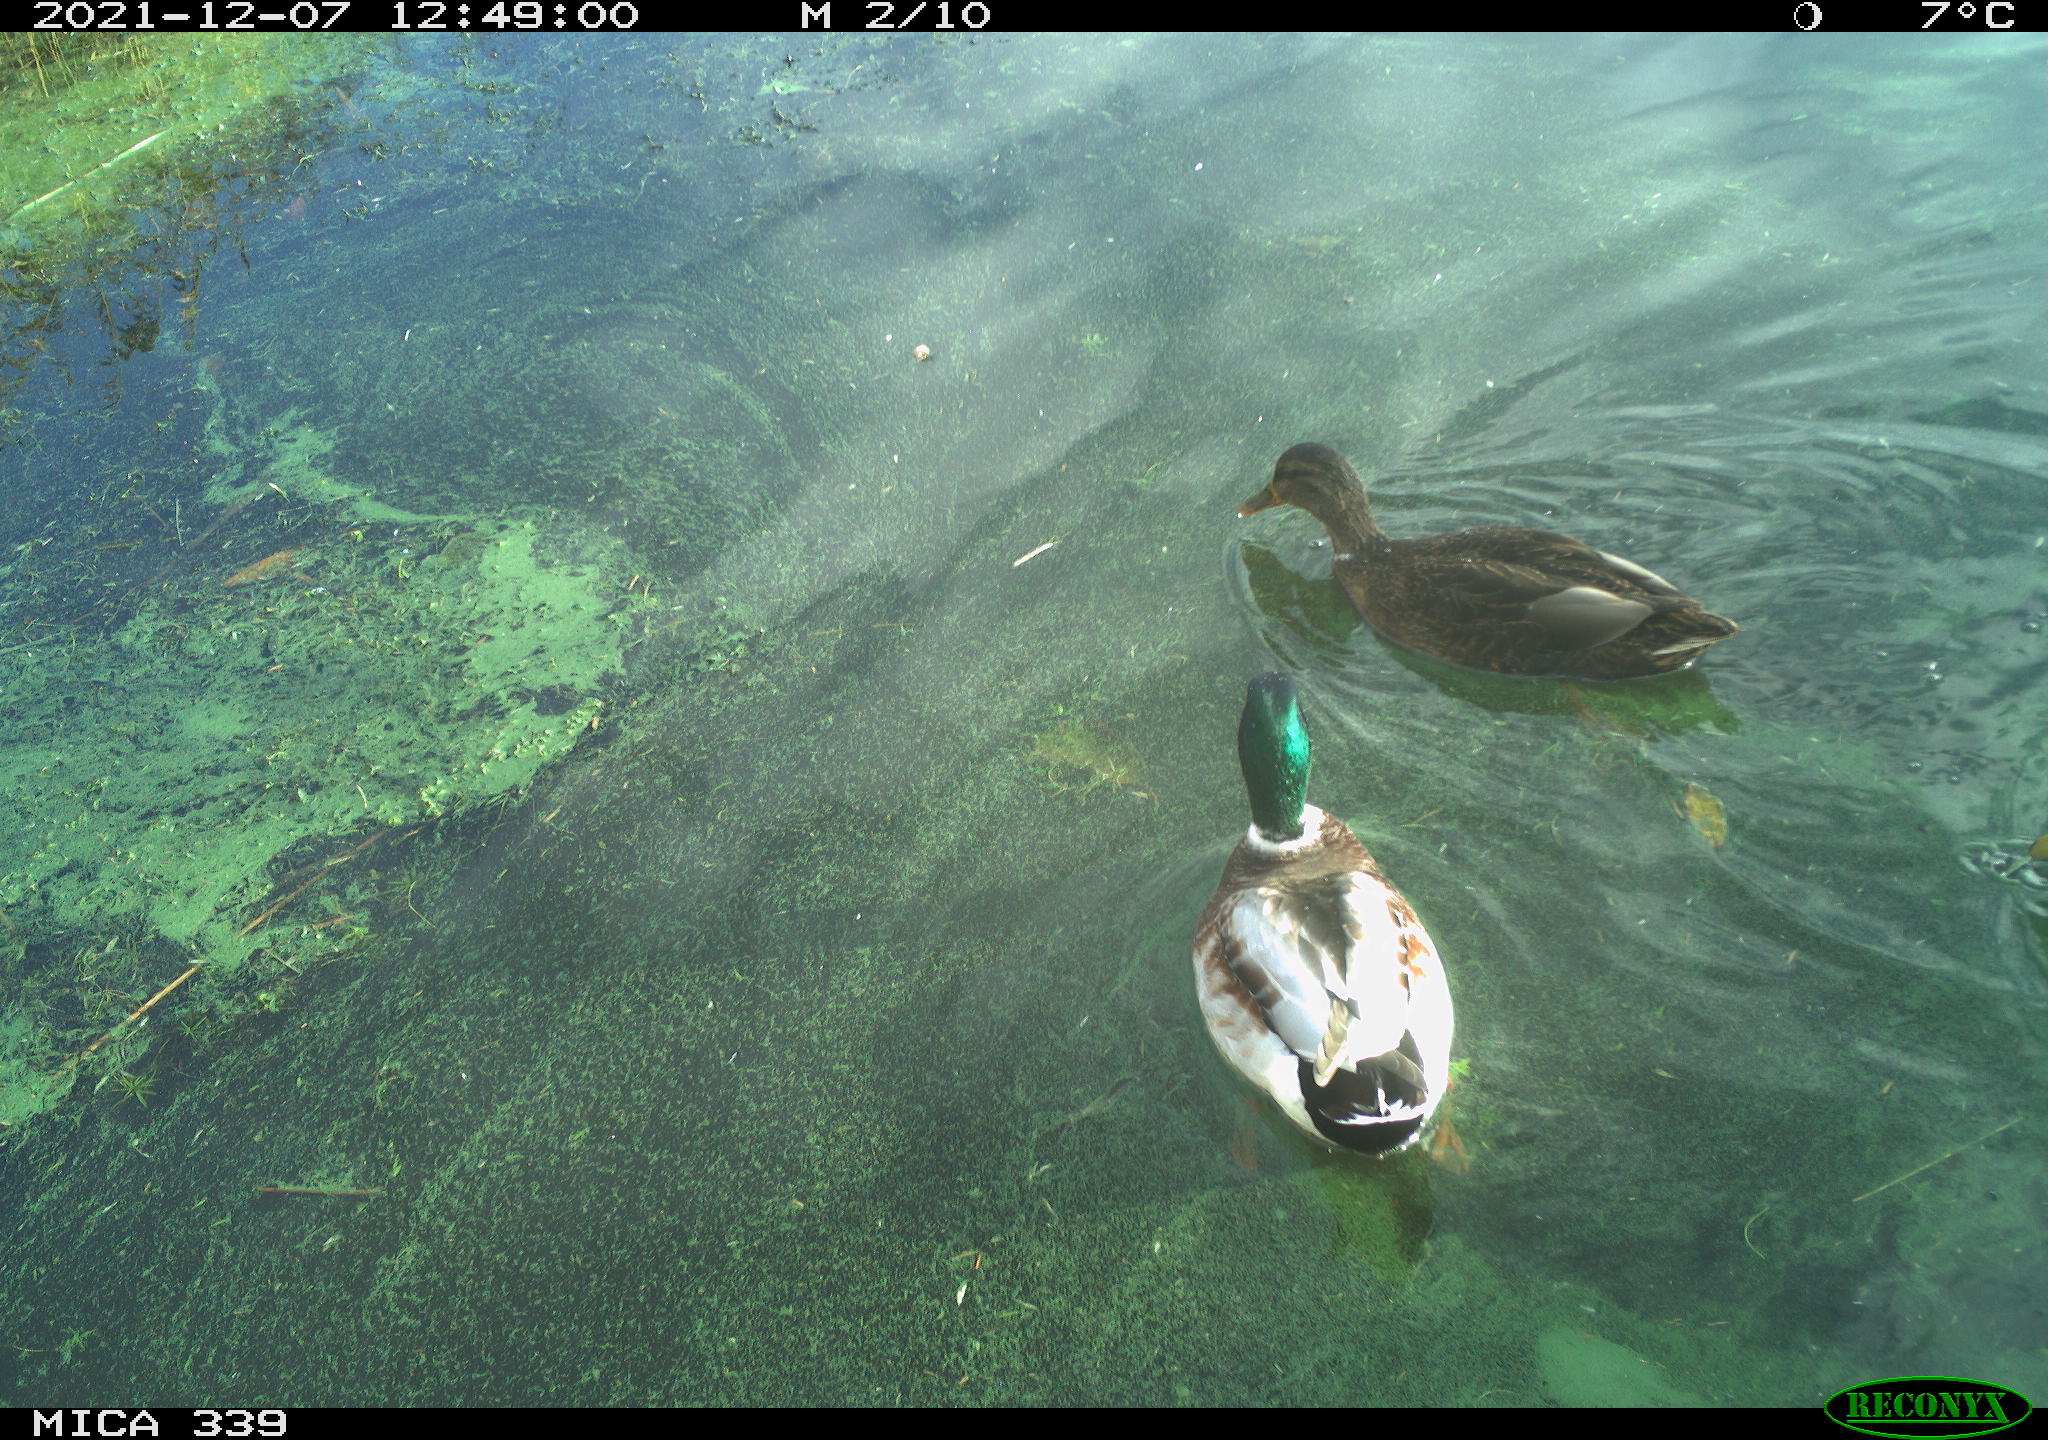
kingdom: Animalia
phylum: Chordata
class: Aves
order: Anseriformes
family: Anatidae
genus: Anas
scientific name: Anas platyrhynchos
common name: Mallard
